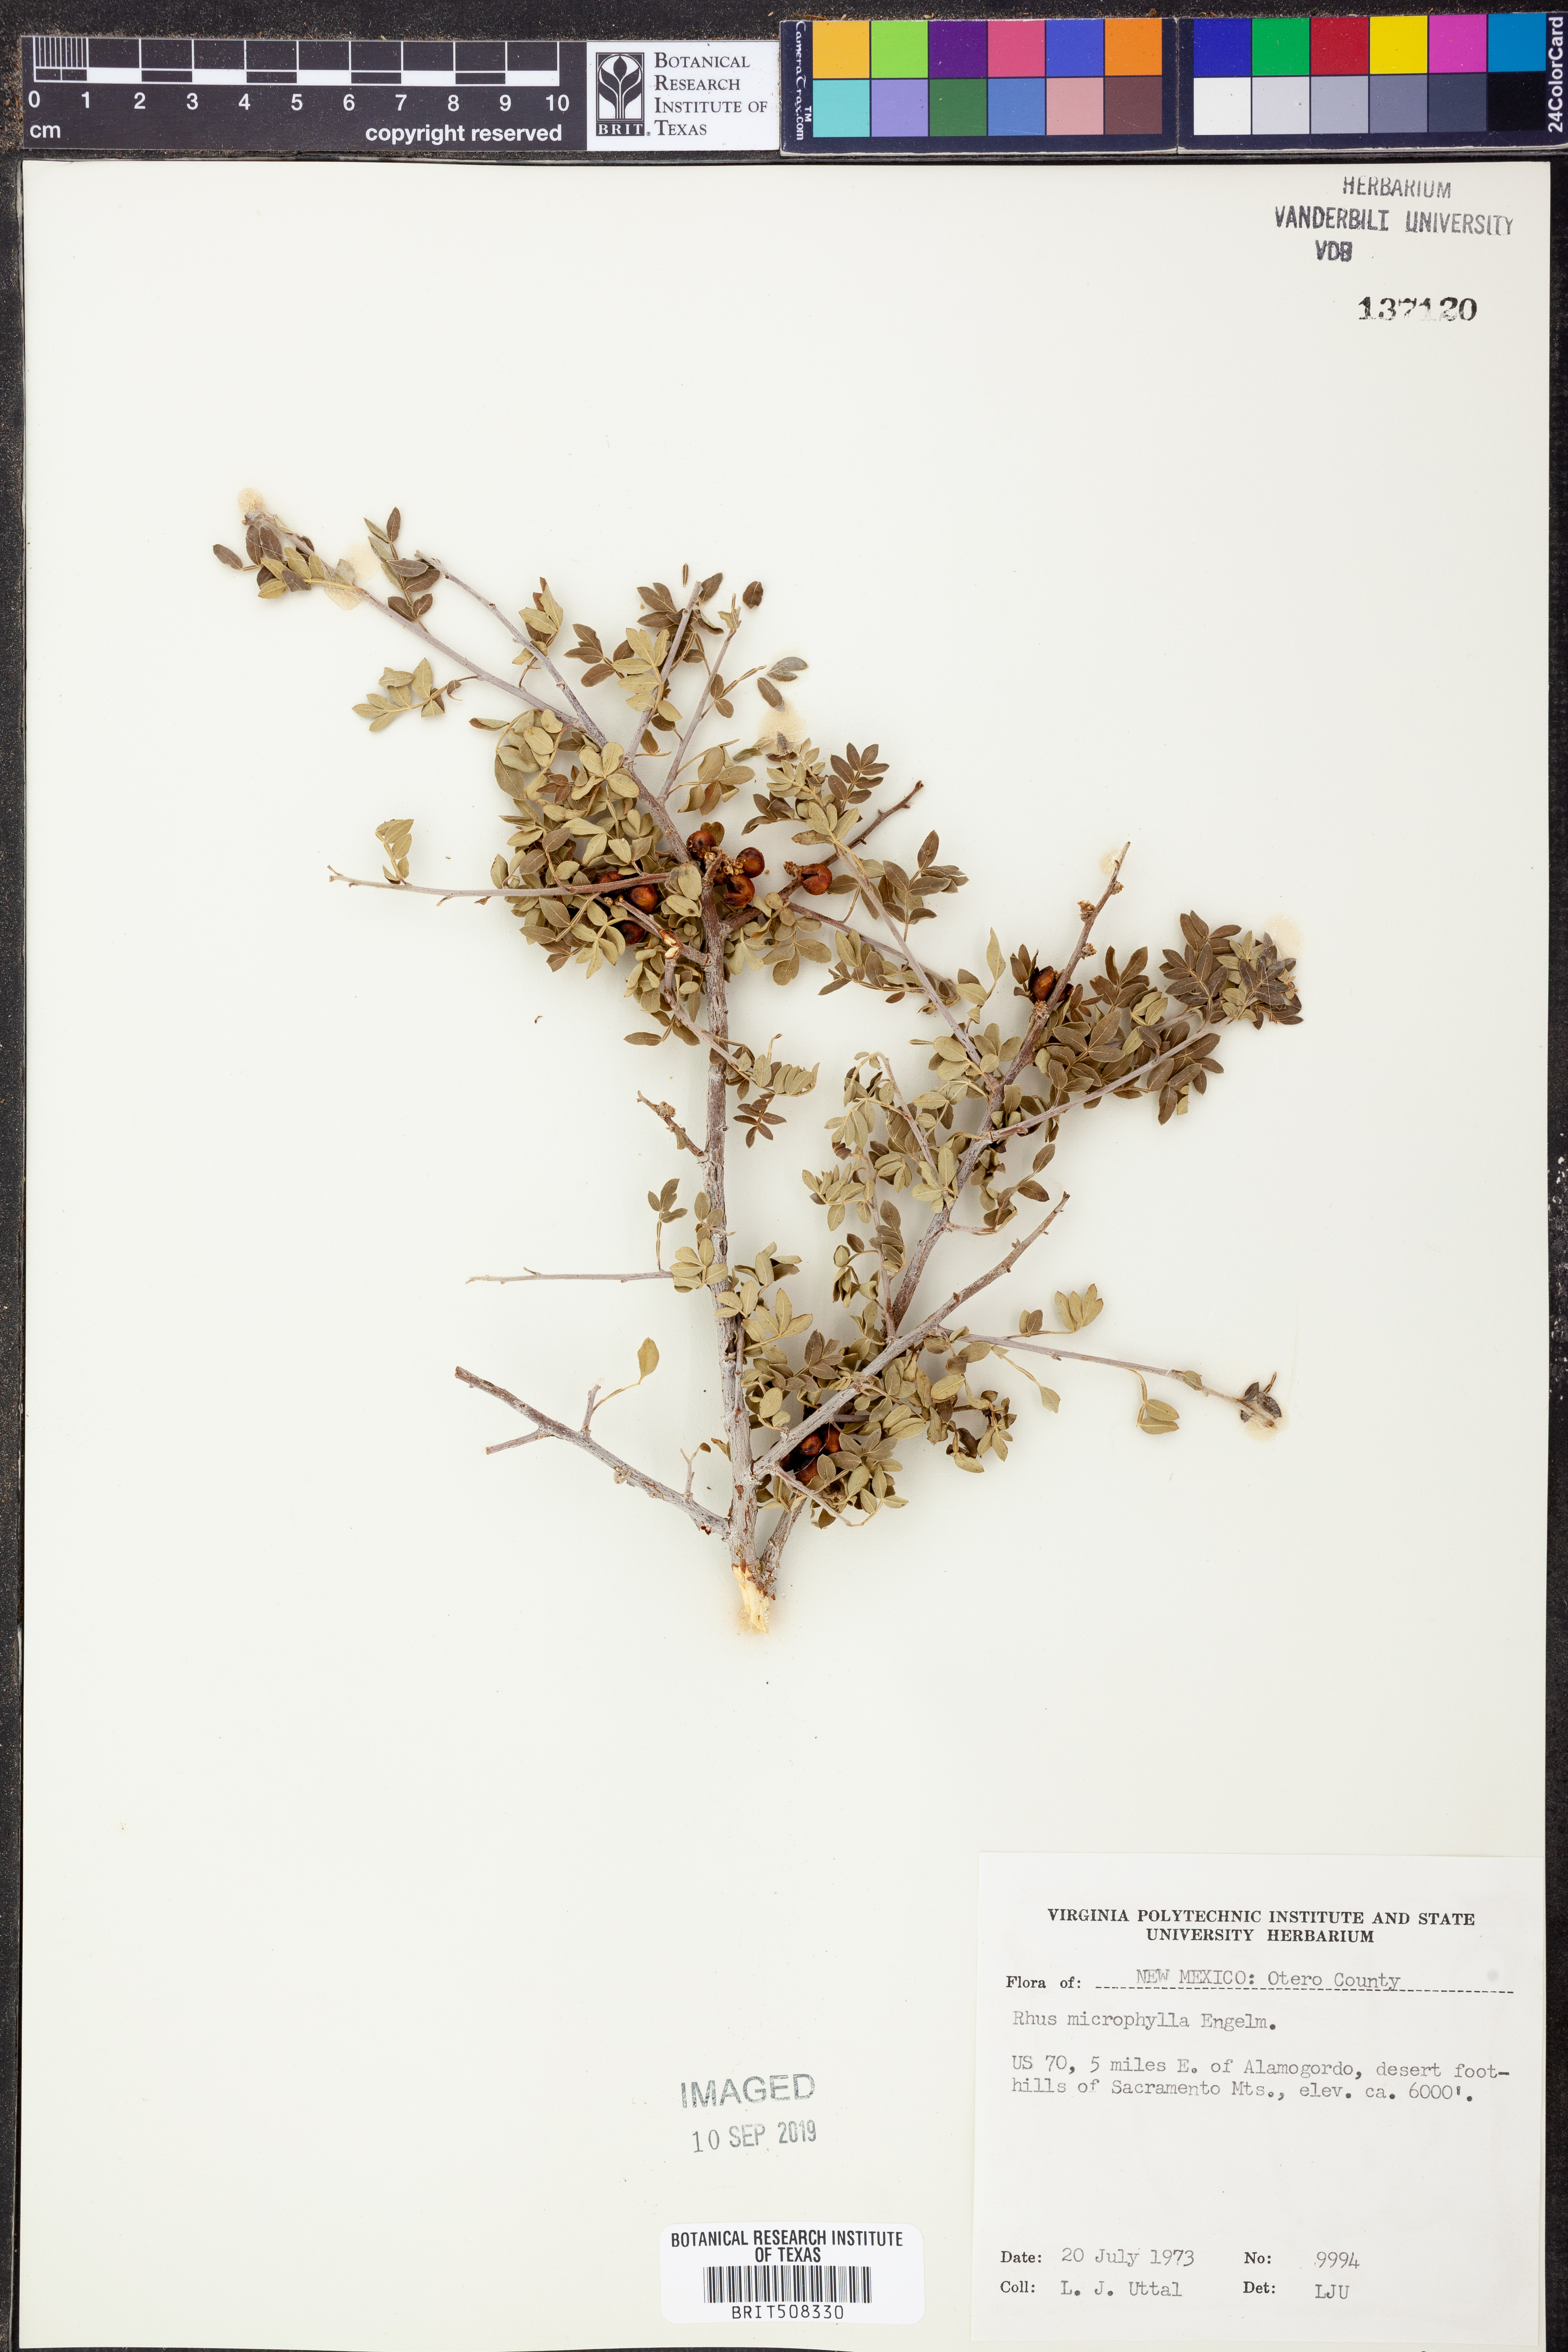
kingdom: Plantae
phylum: Tracheophyta
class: Magnoliopsida
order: Sapindales
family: Anacardiaceae
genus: Rhus
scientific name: Rhus microphylla
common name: Desert sumac
